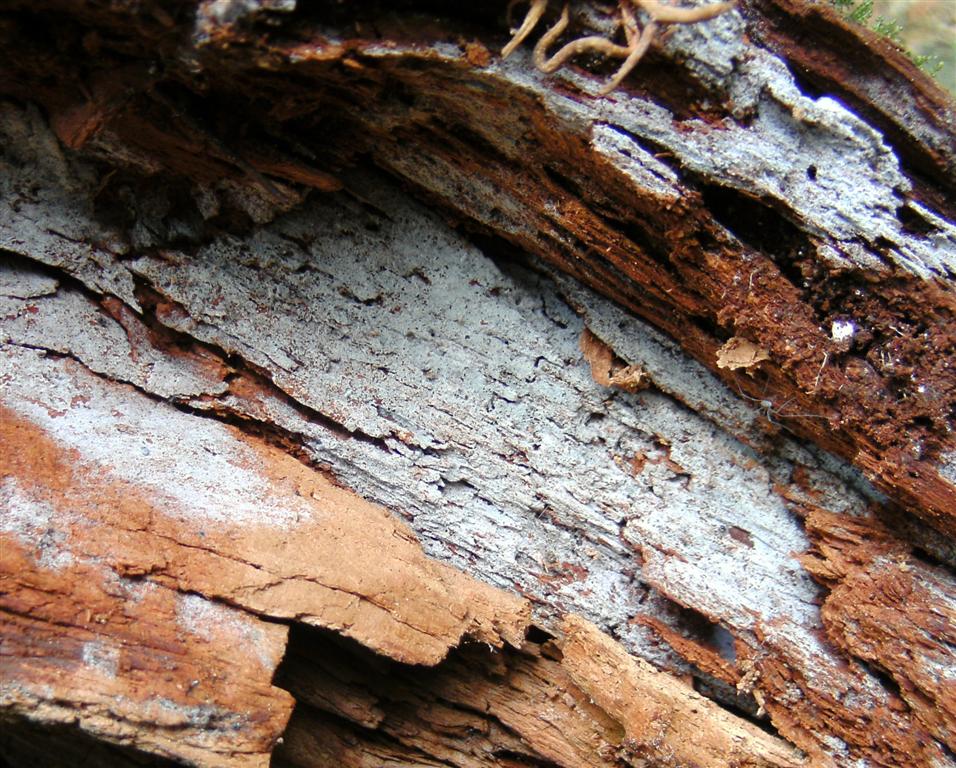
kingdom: Fungi
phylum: Basidiomycota
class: Agaricomycetes
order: Cantharellales
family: Botryobasidiaceae
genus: Botryobasidium
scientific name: Botryobasidium subcoronatum
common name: almindelig spindhinde
